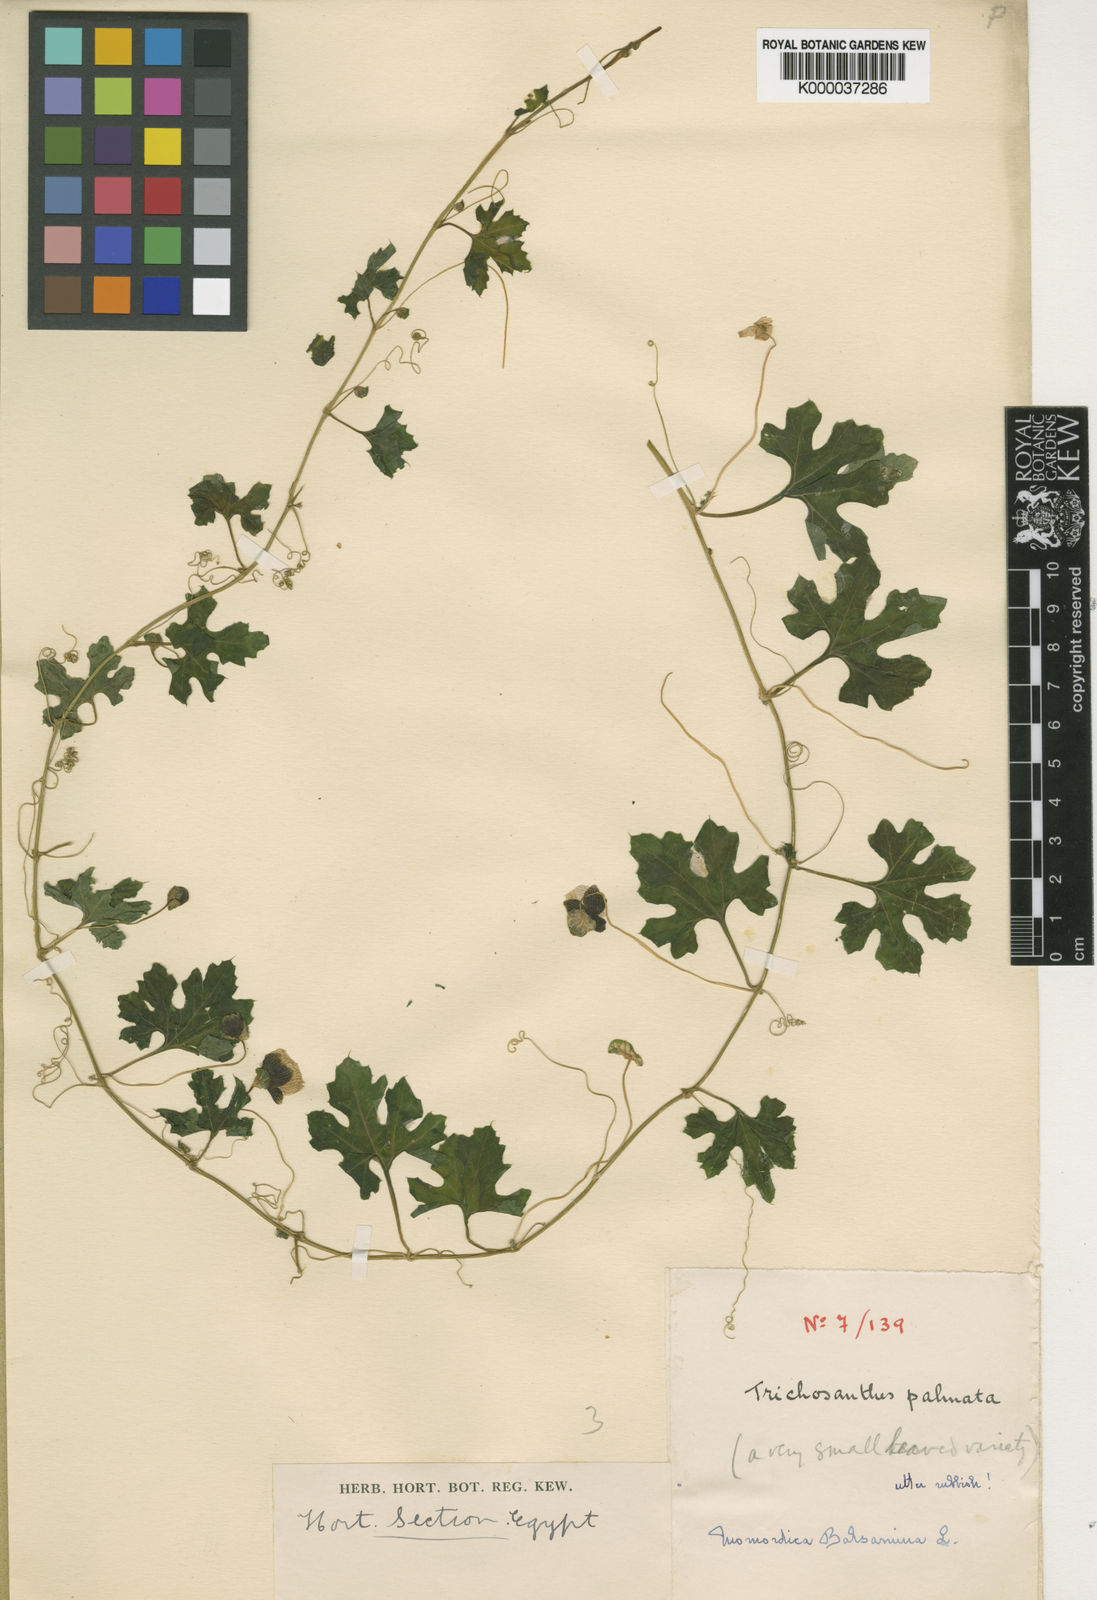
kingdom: Plantae
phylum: Tracheophyta
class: Magnoliopsida
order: Cucurbitales
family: Cucurbitaceae
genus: Momordica
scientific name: Momordica balsamina
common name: Southern balsampear
